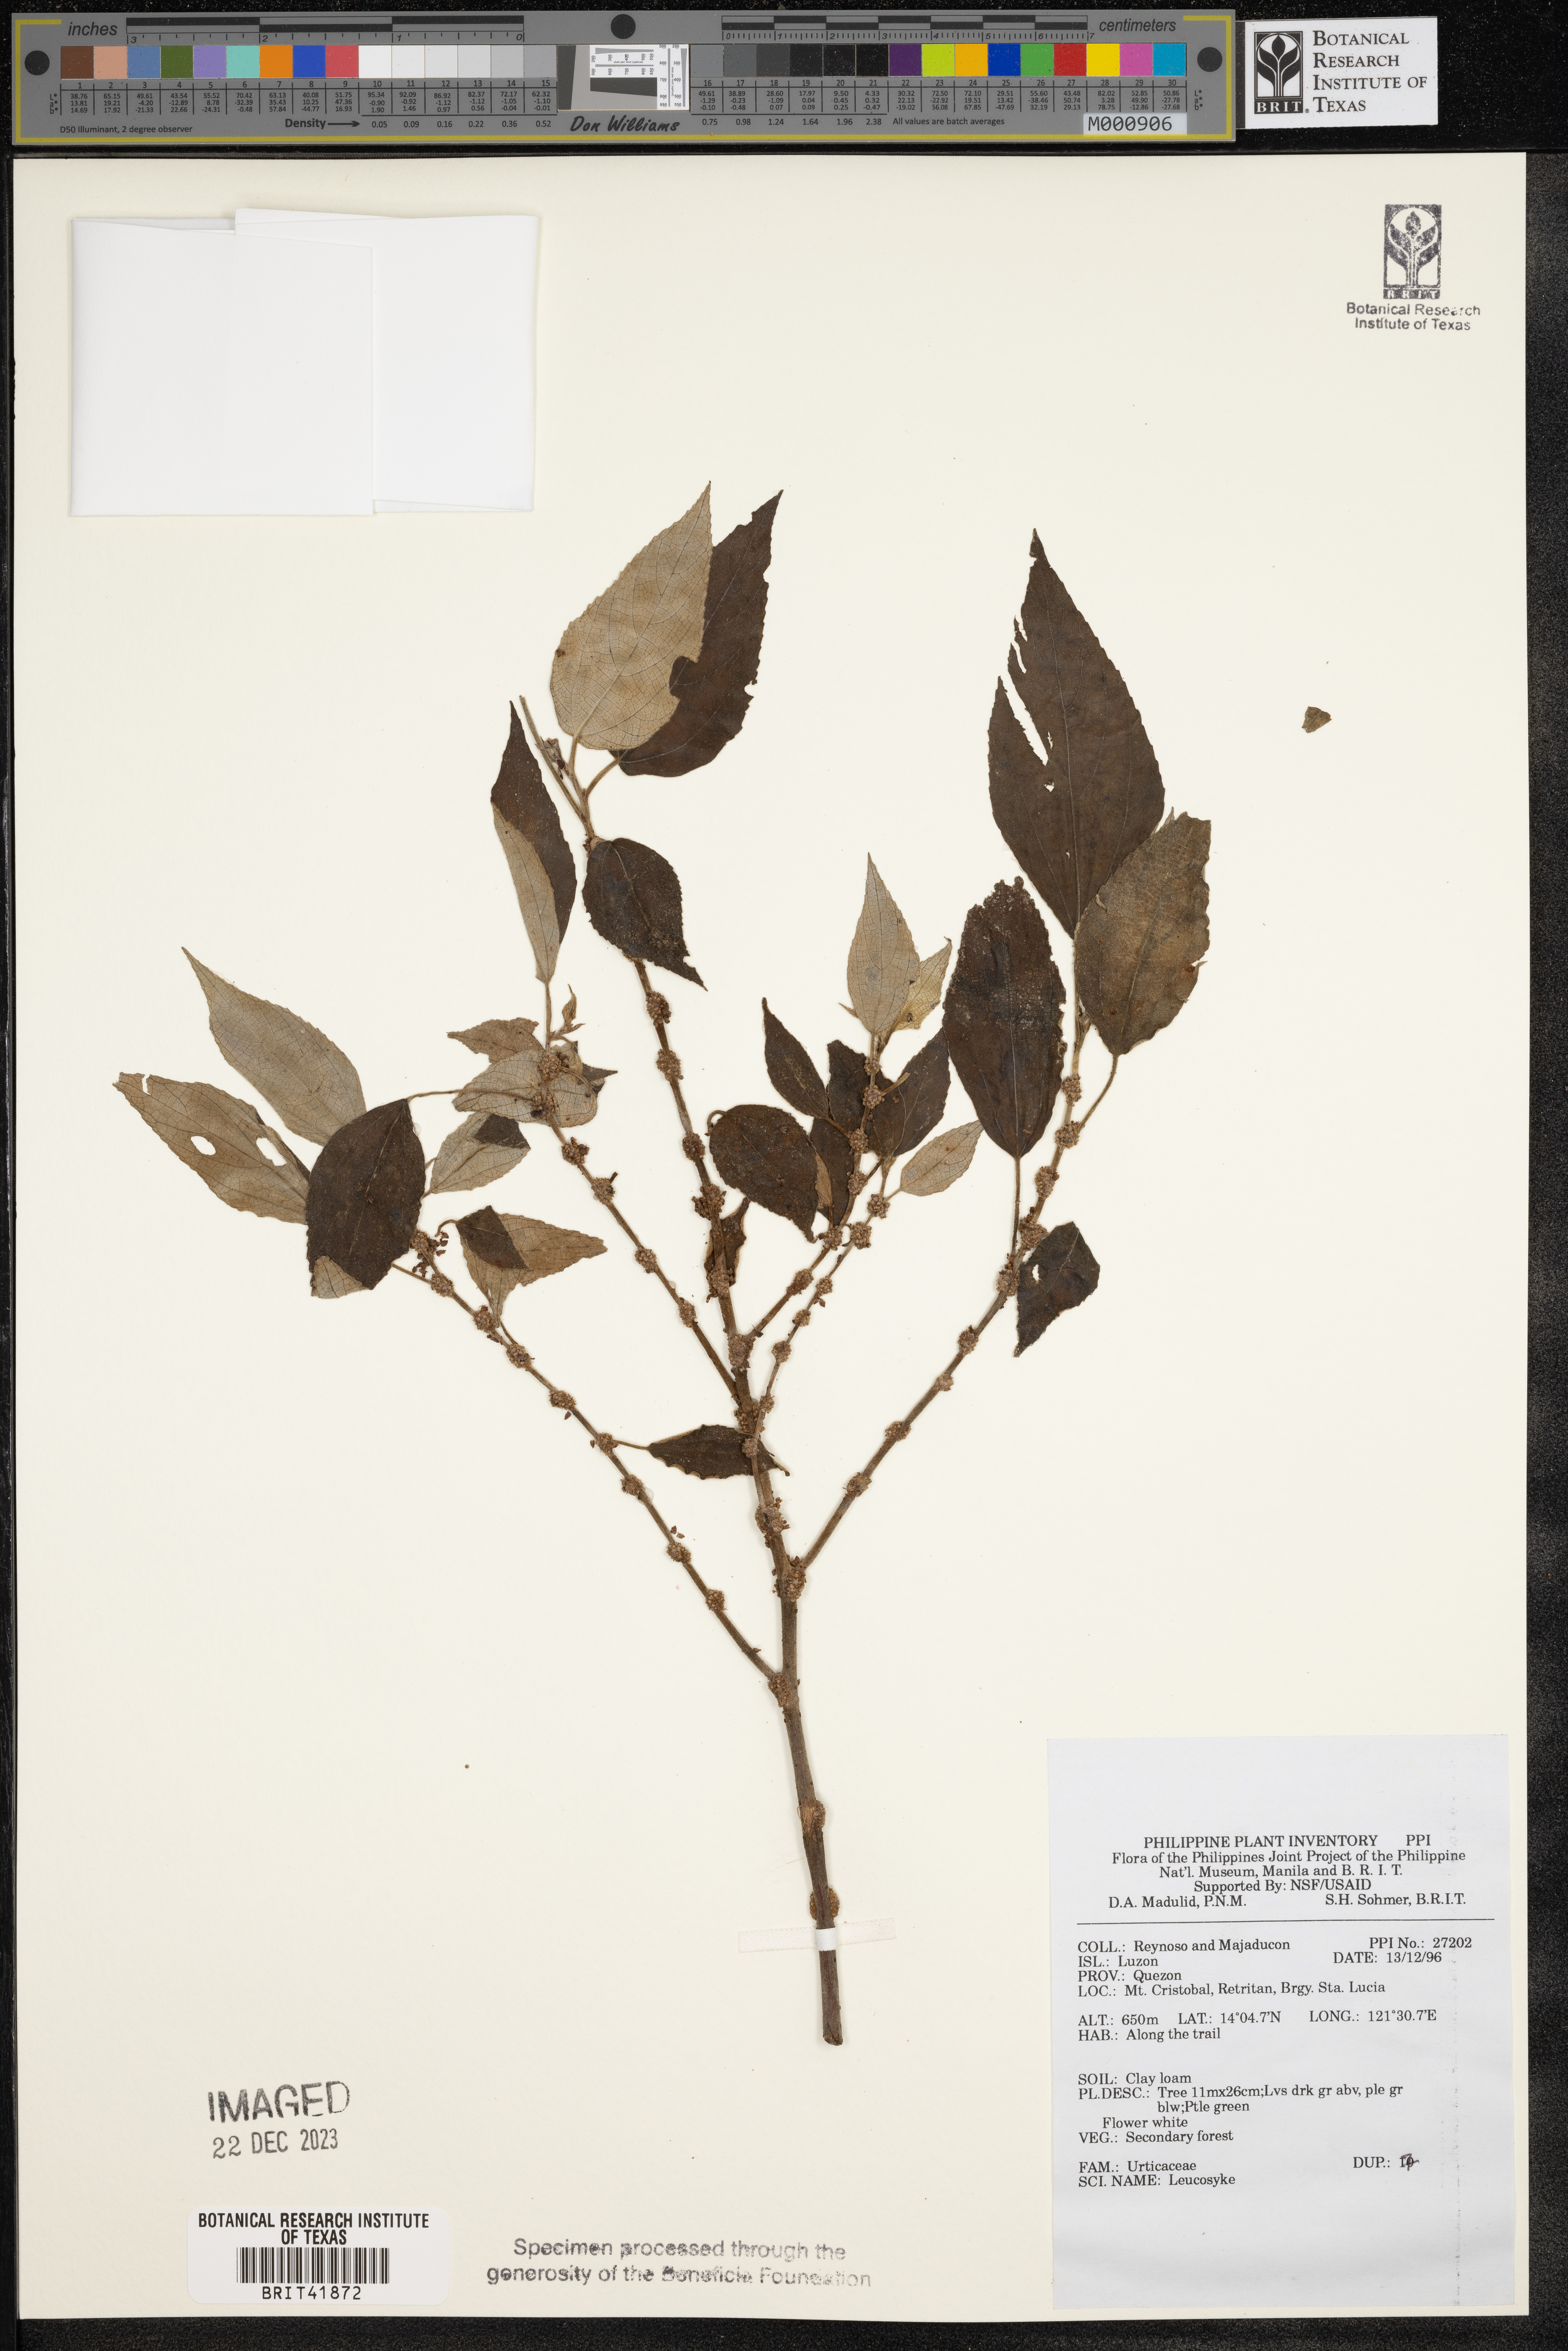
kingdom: Plantae
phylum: Tracheophyta
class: Magnoliopsida
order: Rosales
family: Urticaceae
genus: Leucosyke
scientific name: Leucosyke
